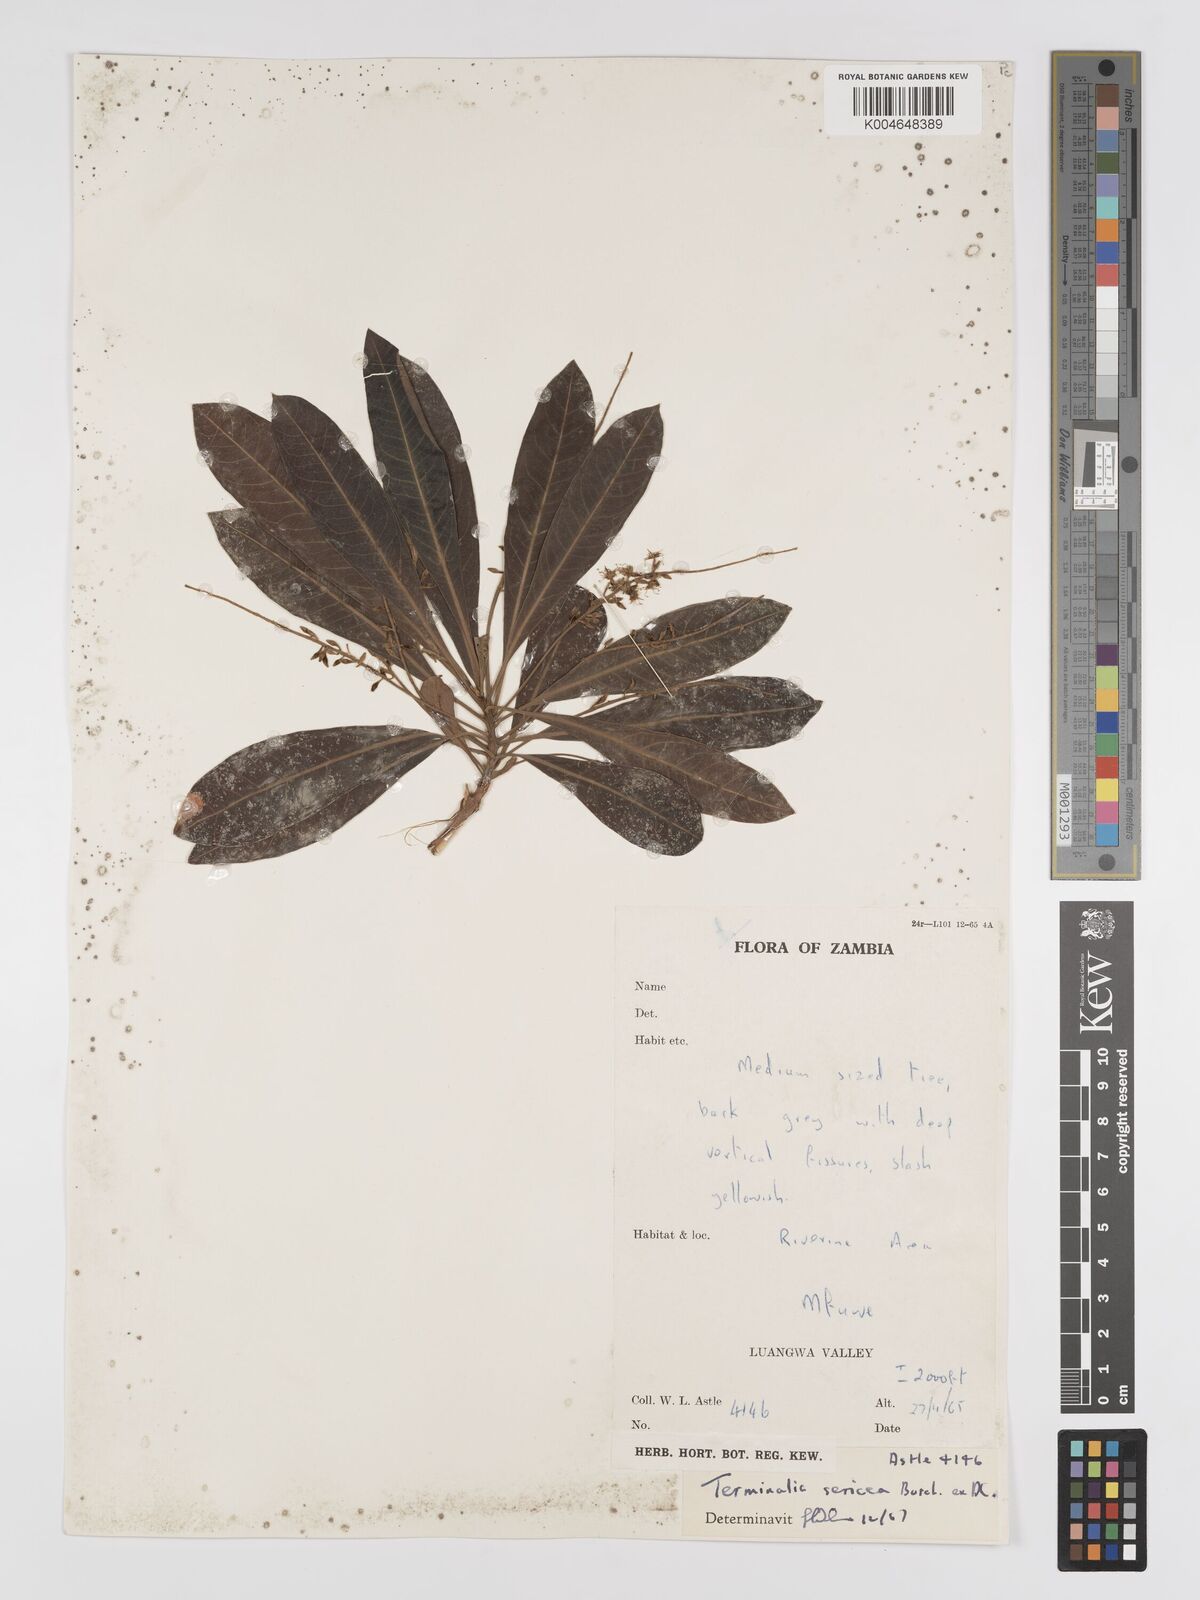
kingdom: Plantae
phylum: Tracheophyta
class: Magnoliopsida
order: Myrtales
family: Combretaceae
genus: Terminalia
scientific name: Terminalia
